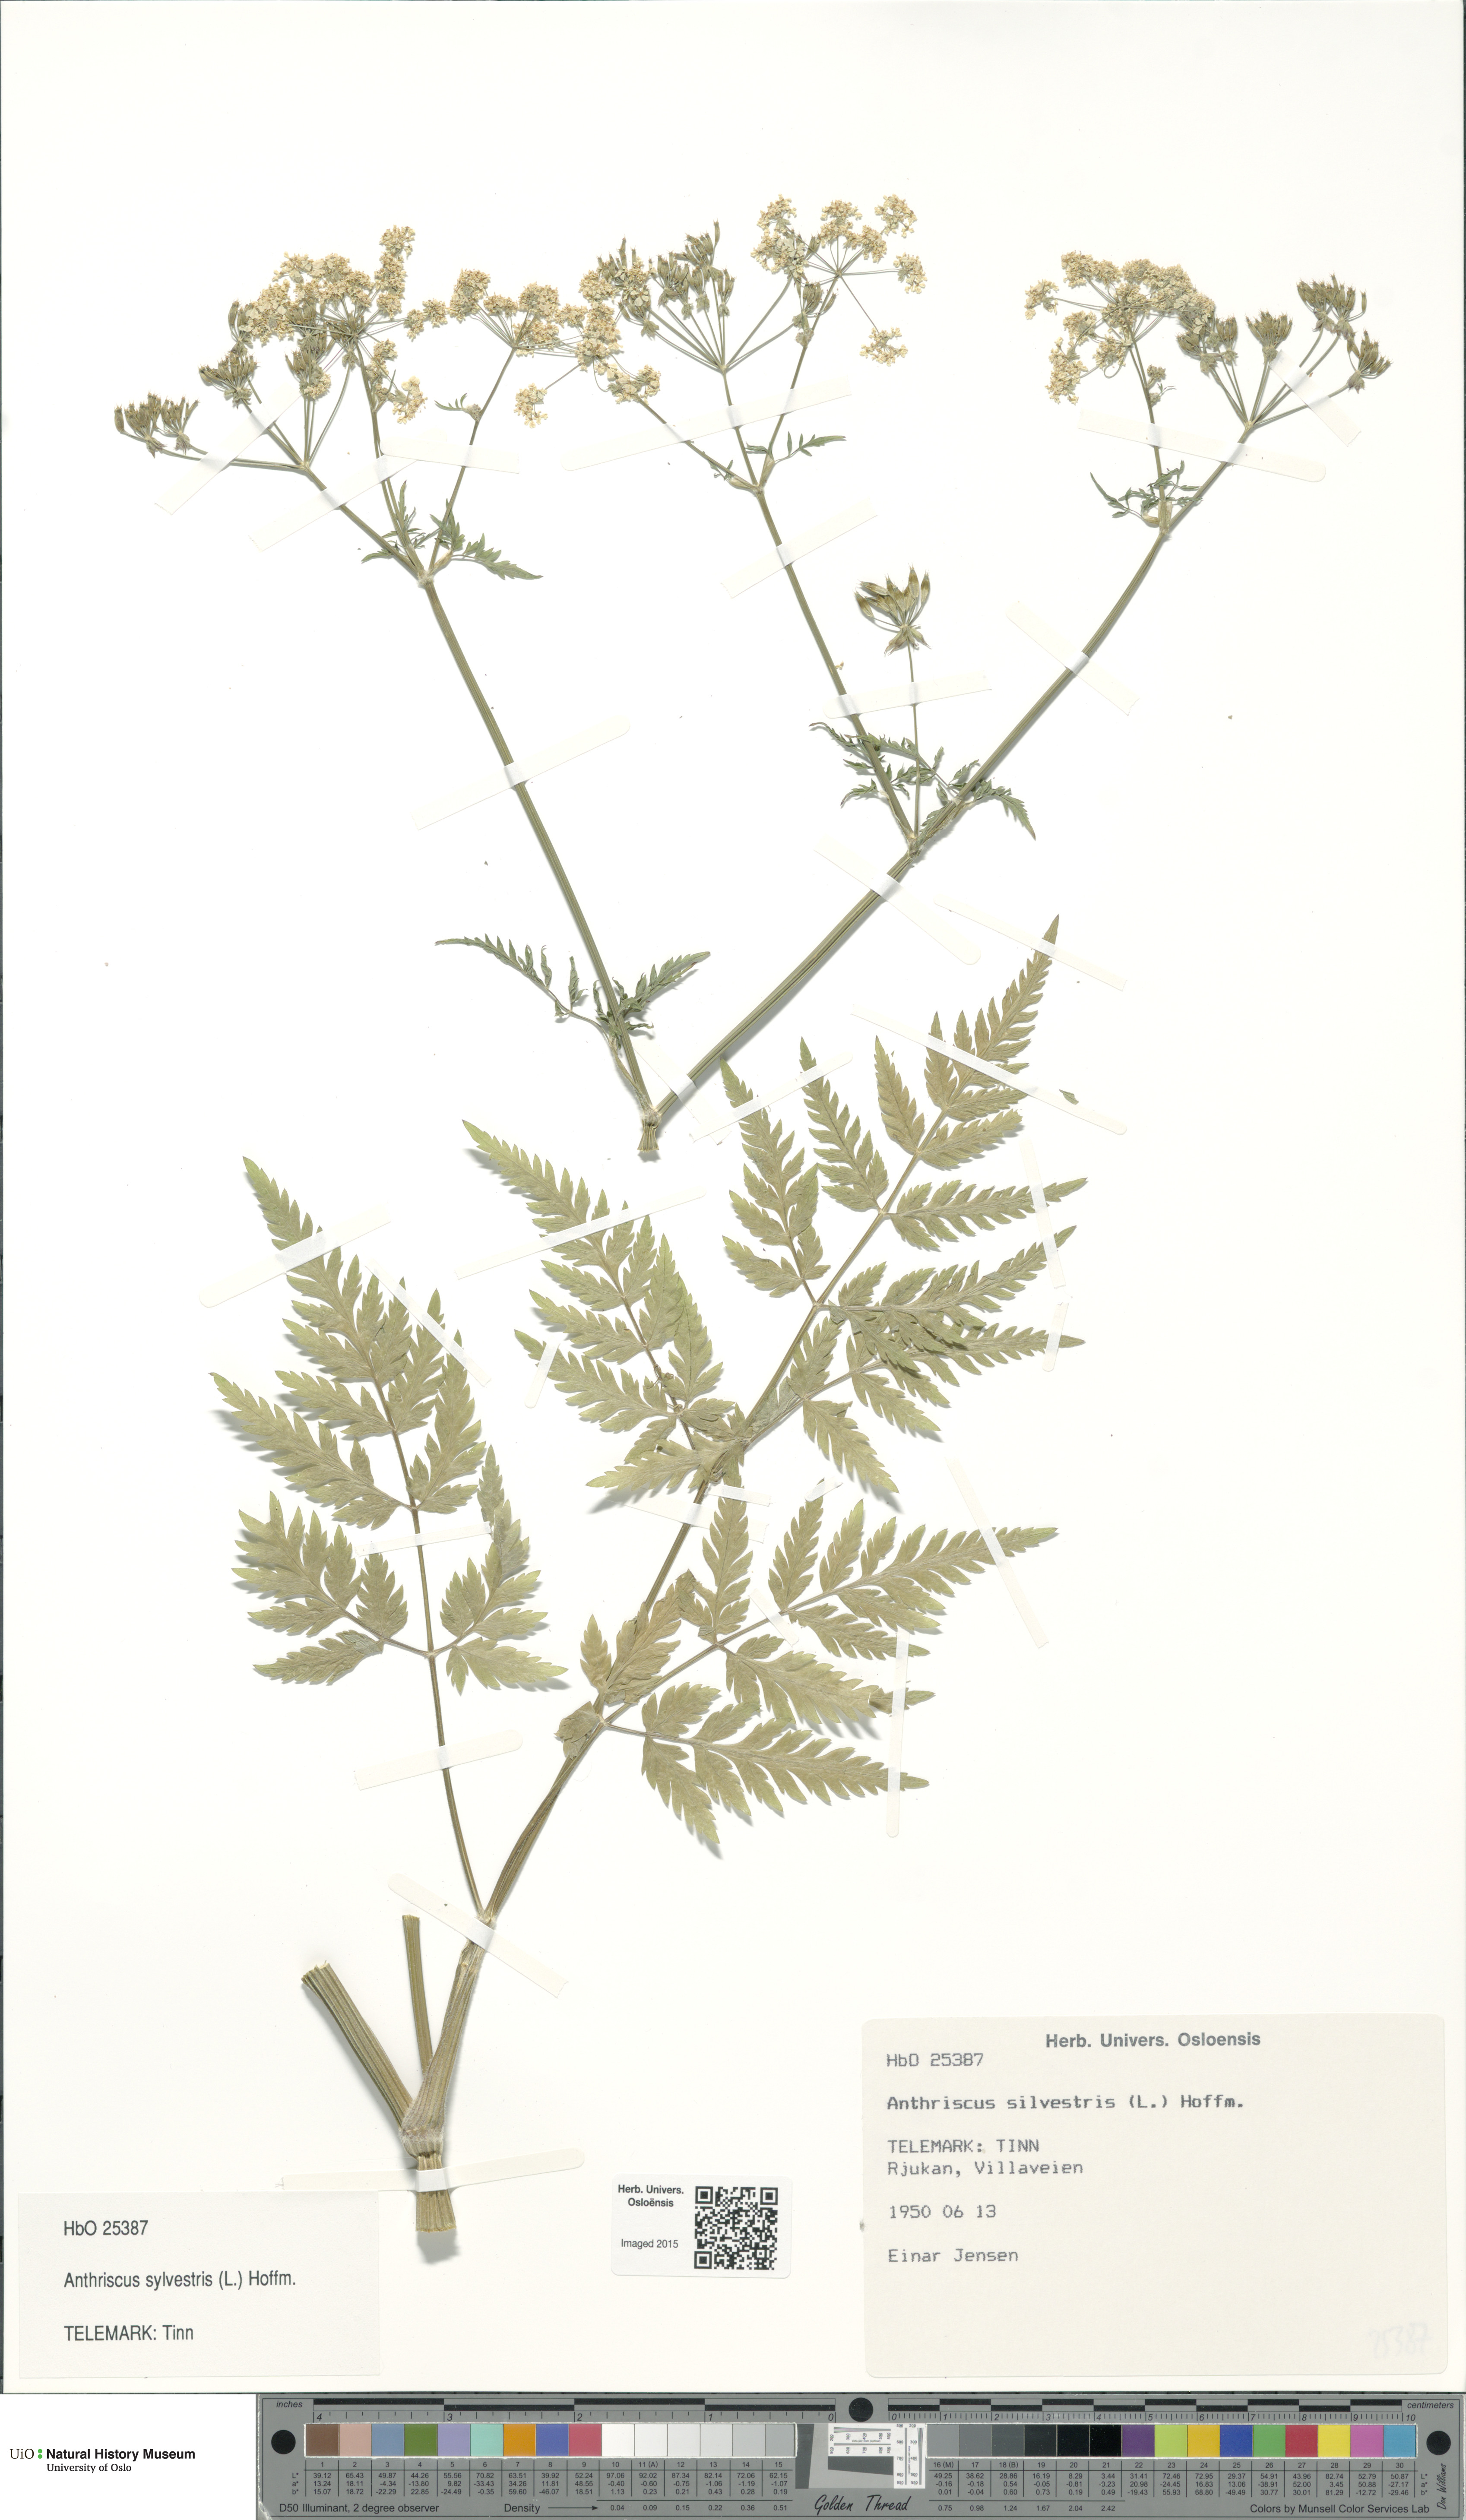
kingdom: Plantae
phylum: Tracheophyta
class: Magnoliopsida
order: Apiales
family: Apiaceae
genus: Anthriscus
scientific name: Anthriscus sylvestris
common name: Cow parsley
